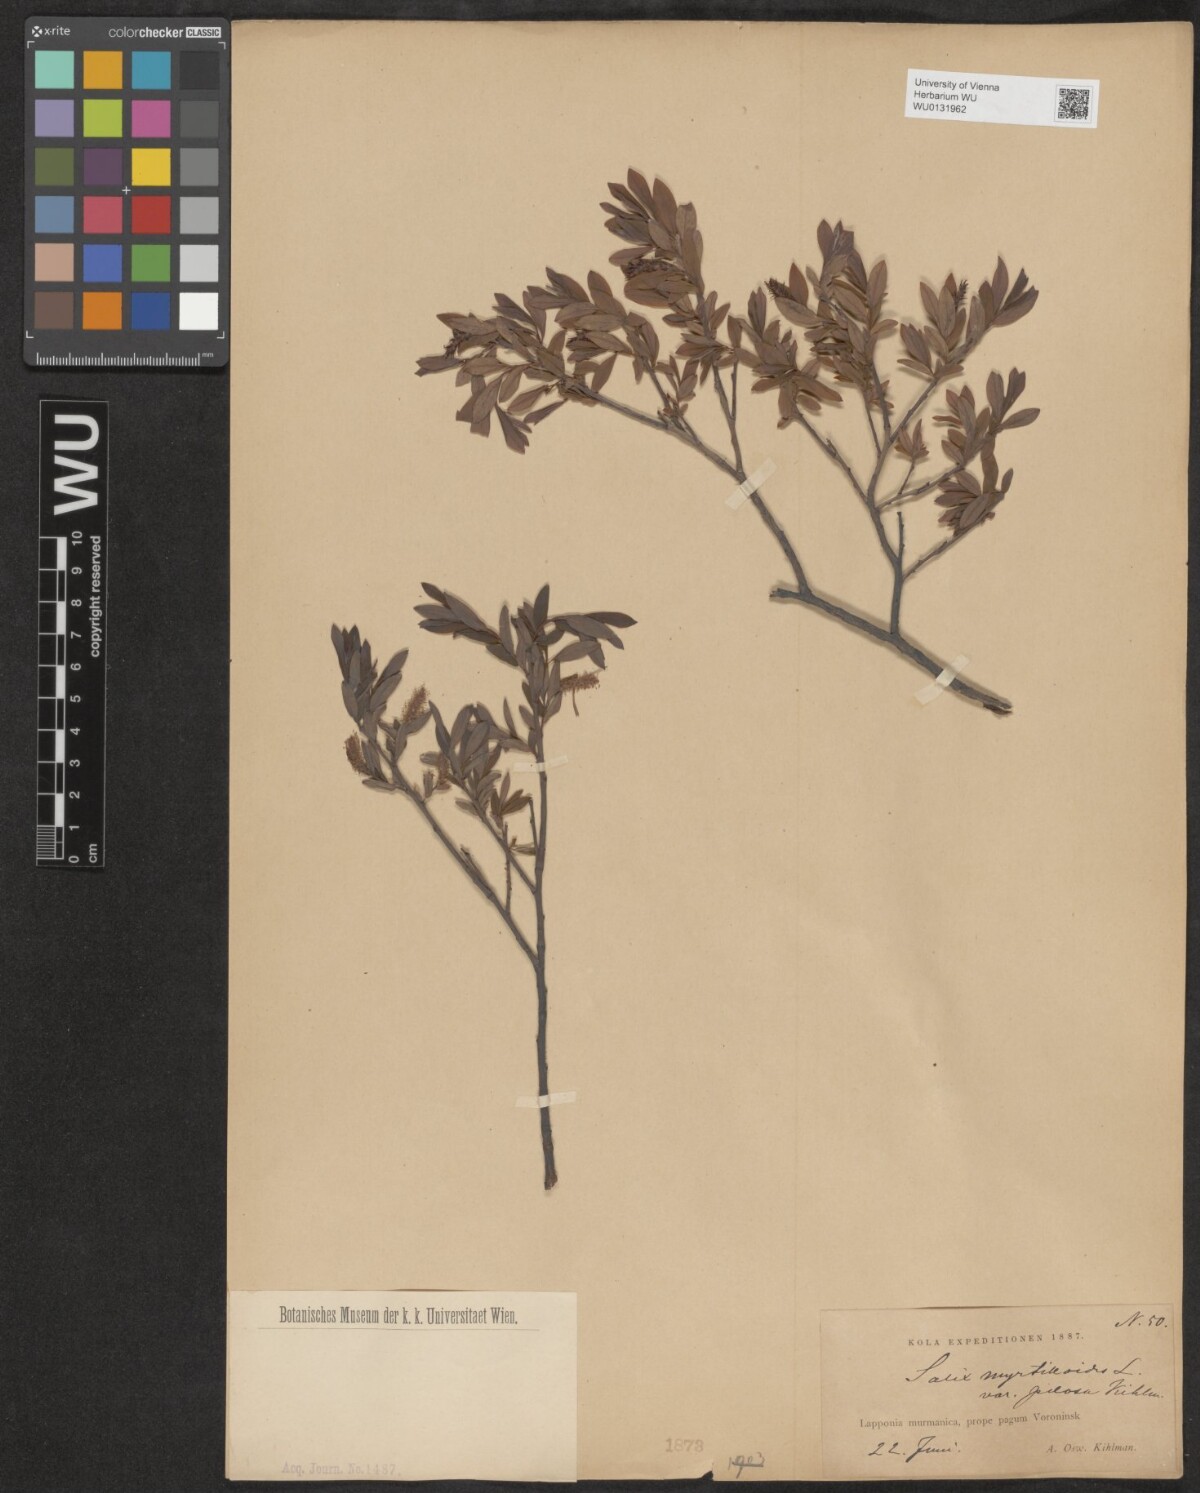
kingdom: Plantae
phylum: Tracheophyta
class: Magnoliopsida
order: Malpighiales
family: Salicaceae
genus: Salix
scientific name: Salix myrtilloides
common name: Myrtle-leaved willow
